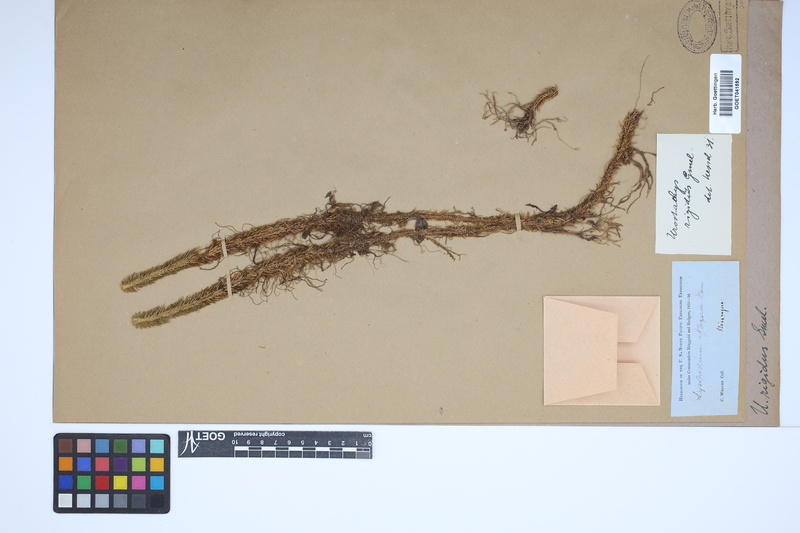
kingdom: Plantae
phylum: Tracheophyta
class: Lycopodiopsida
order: Lycopodiales
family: Lycopodiaceae
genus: Phlegmariurus
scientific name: Phlegmariurus reflexus
